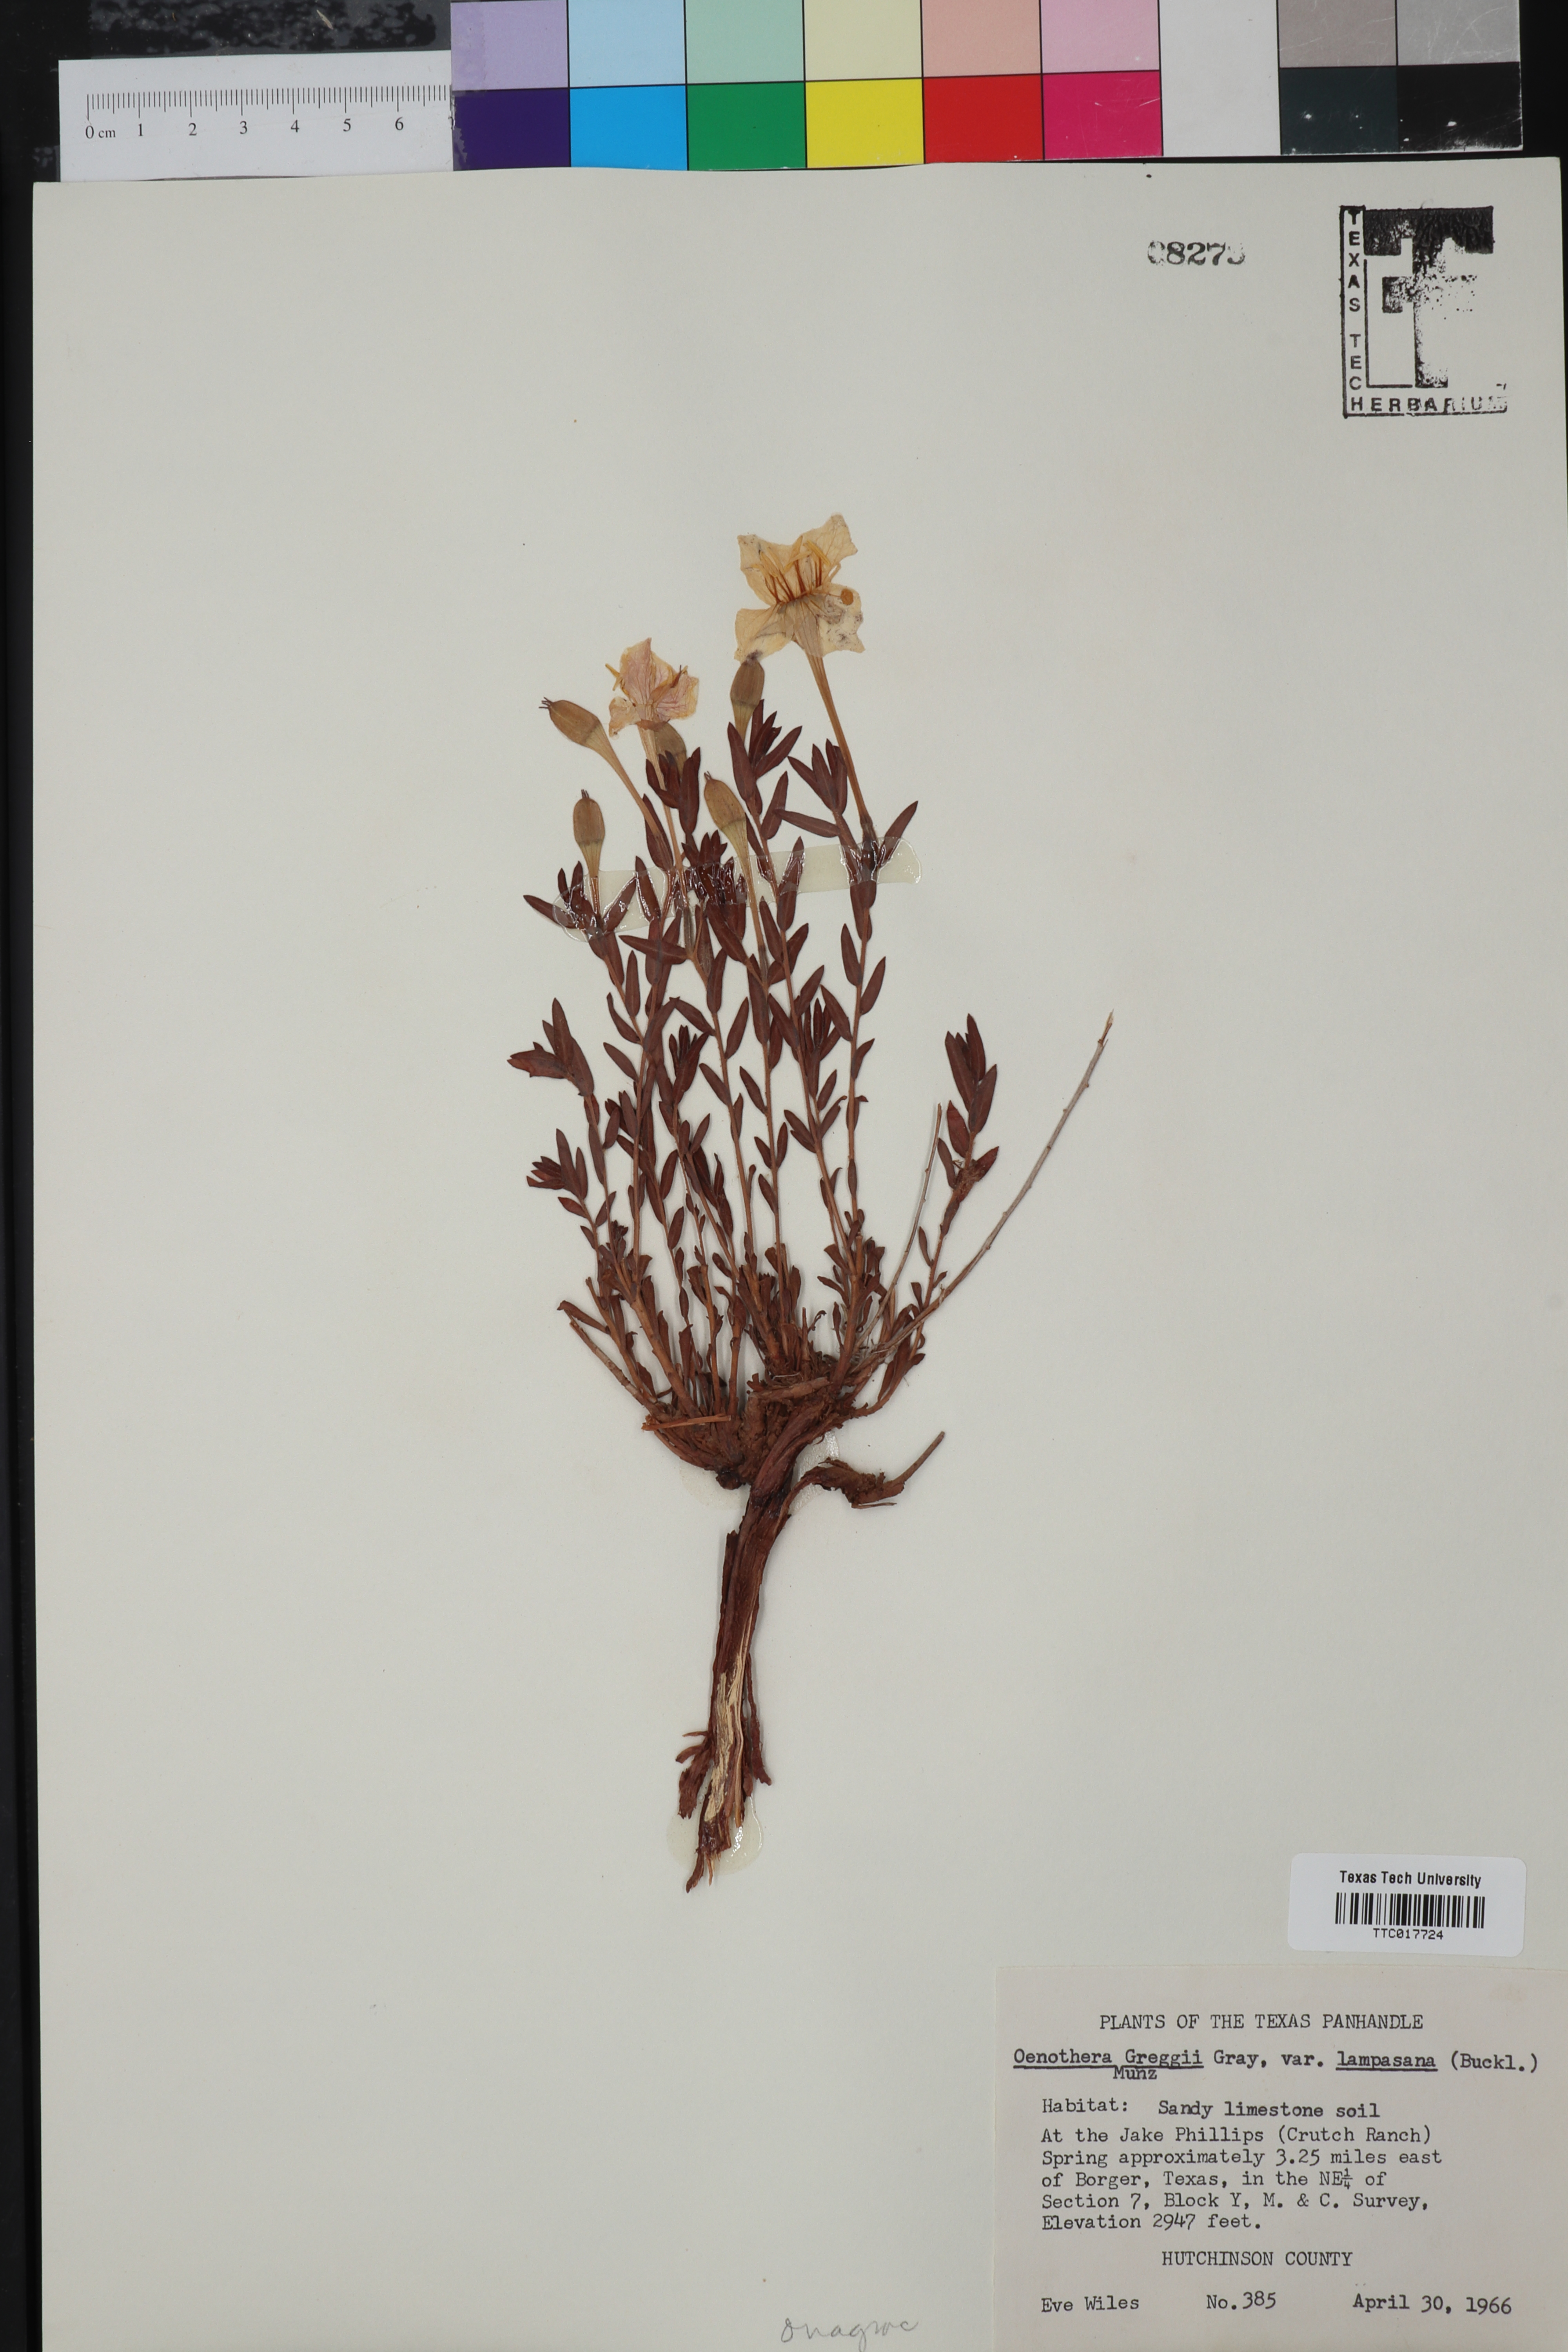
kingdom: Plantae
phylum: Tracheophyta
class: Magnoliopsida
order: Myrtales
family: Onagraceae
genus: Oenothera
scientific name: Oenothera hartwegii
